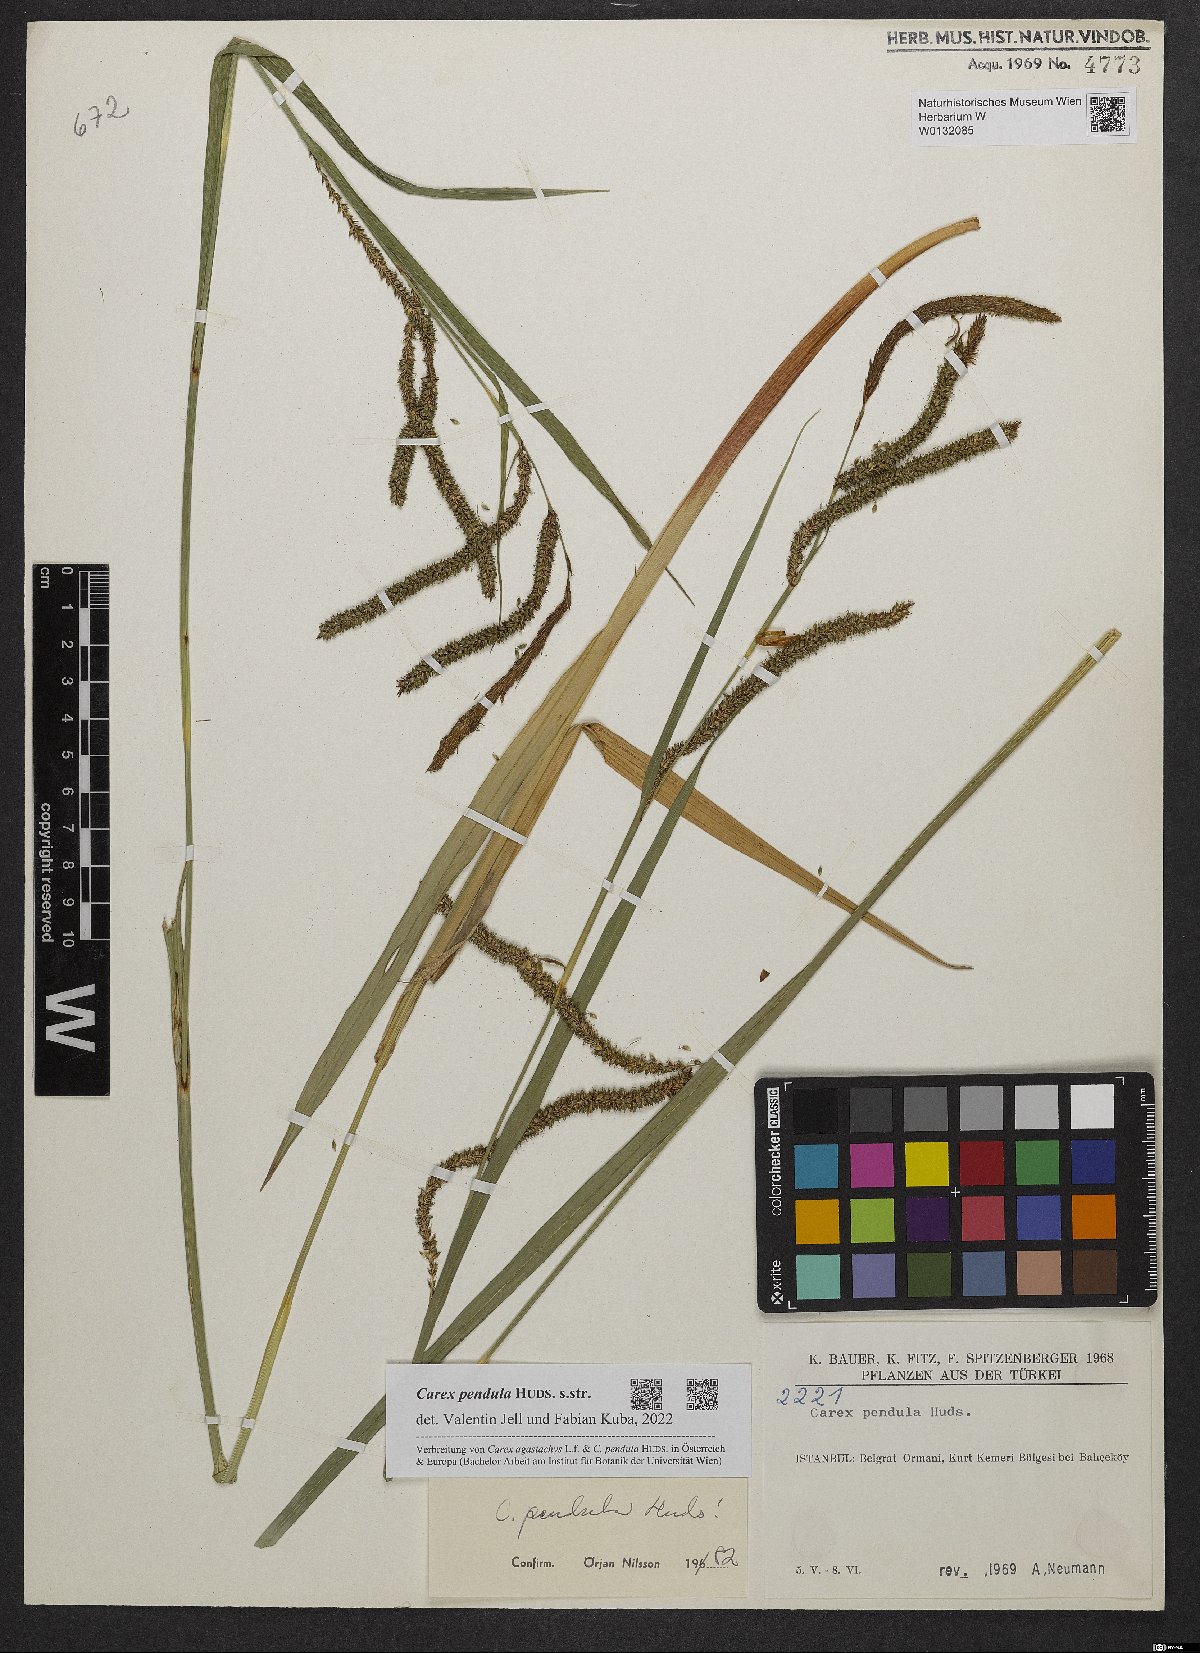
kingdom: Plantae
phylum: Tracheophyta
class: Liliopsida
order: Poales
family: Cyperaceae
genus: Carex
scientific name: Carex pendula
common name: Pendulous sedge
